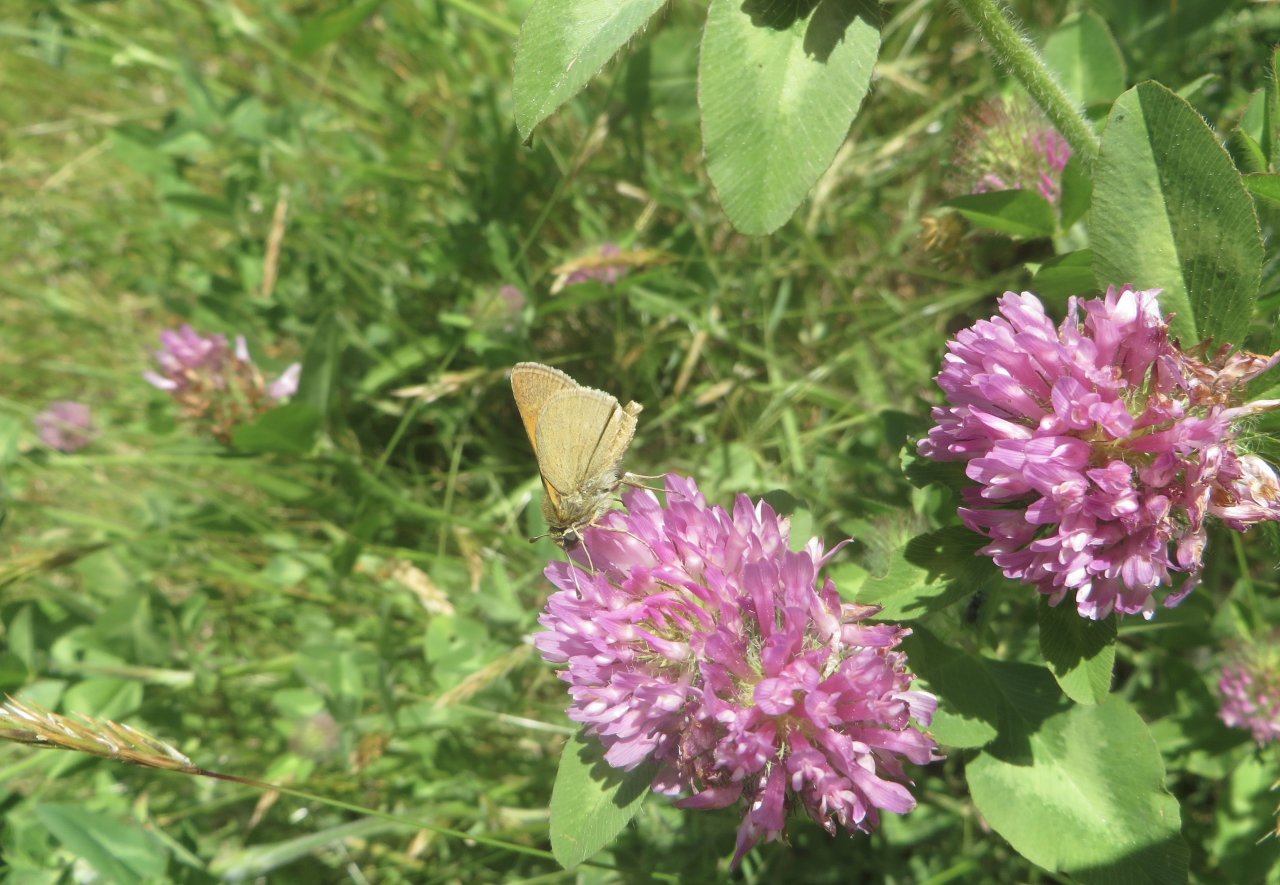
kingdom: Animalia
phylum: Arthropoda
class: Insecta
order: Lepidoptera
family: Hesperiidae
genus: Polites
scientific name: Polites themistocles
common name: Tawny-edged Skipper
